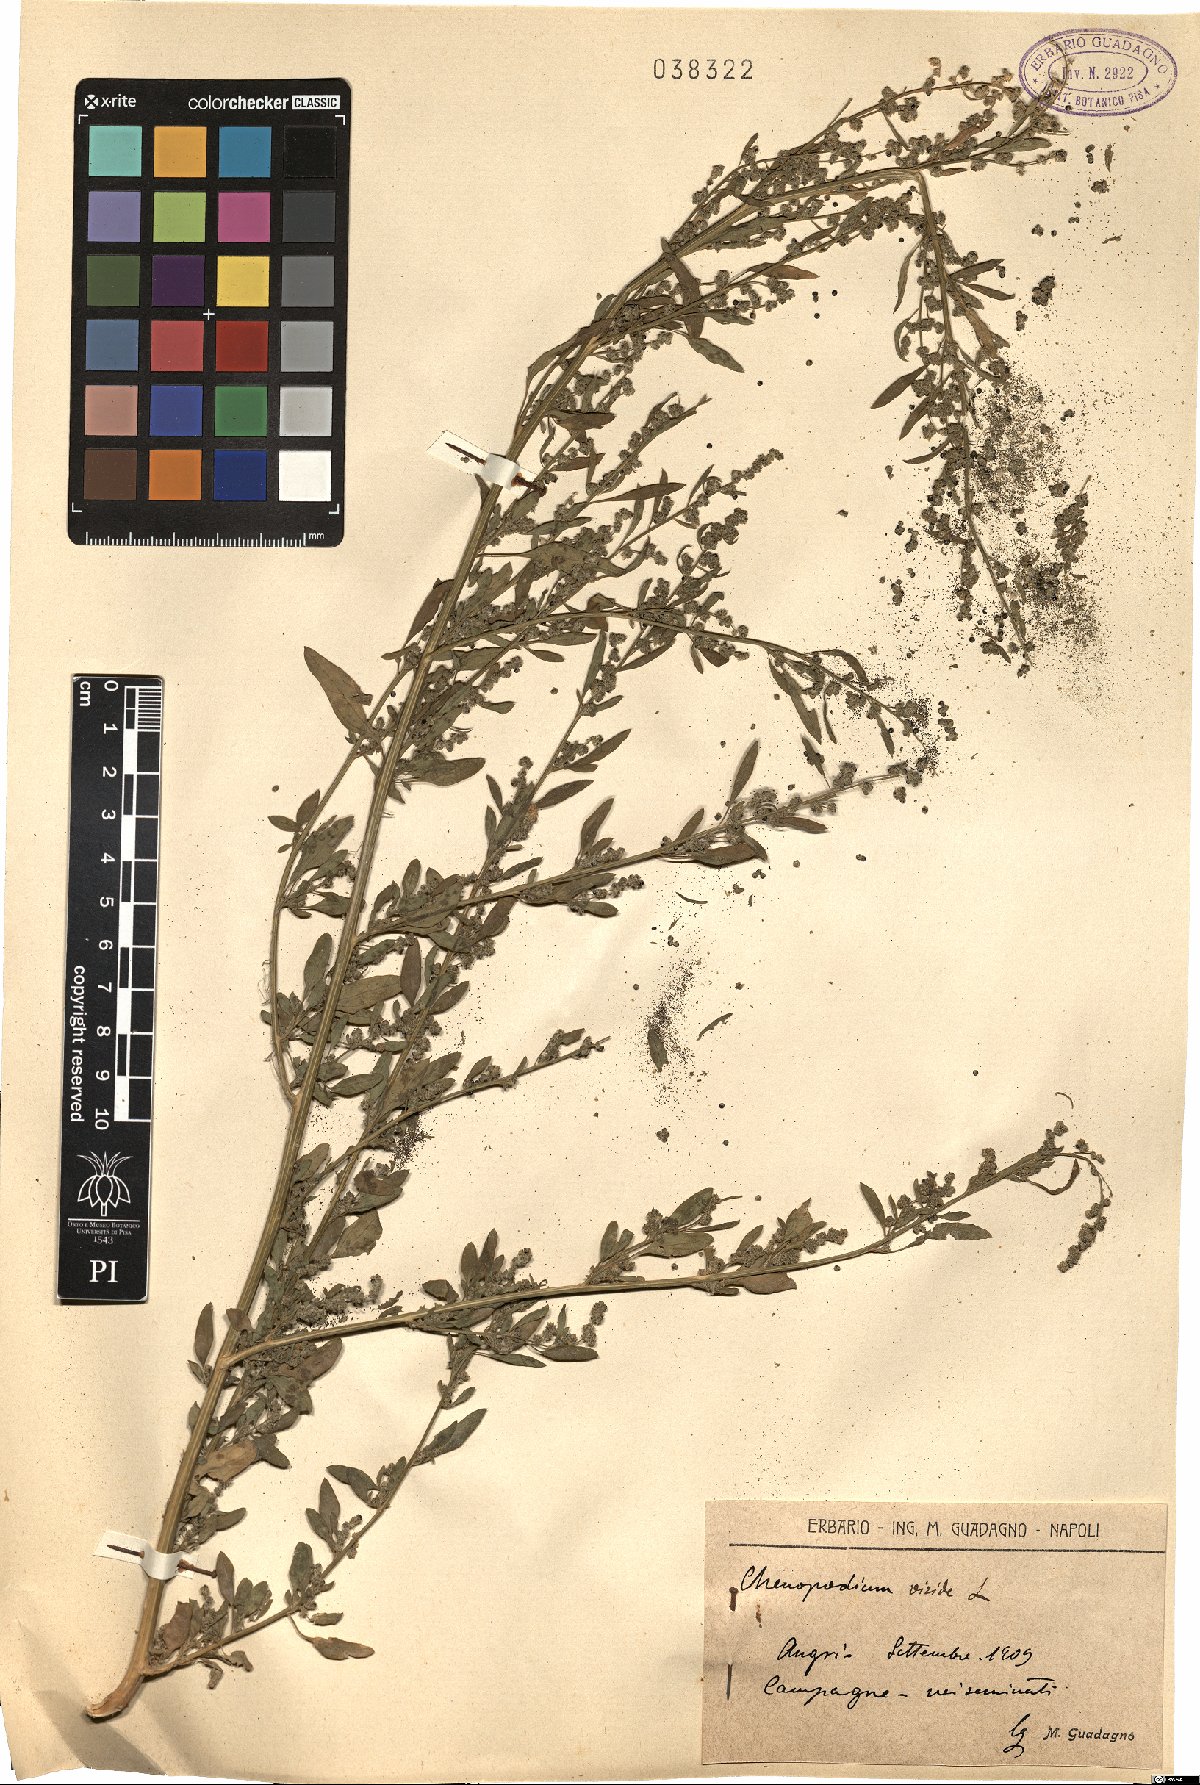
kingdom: Plantae
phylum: Tracheophyta
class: Magnoliopsida
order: Caryophyllales
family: Amaranthaceae
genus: Chenopodium
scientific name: Chenopodium album
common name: Fat-hen
